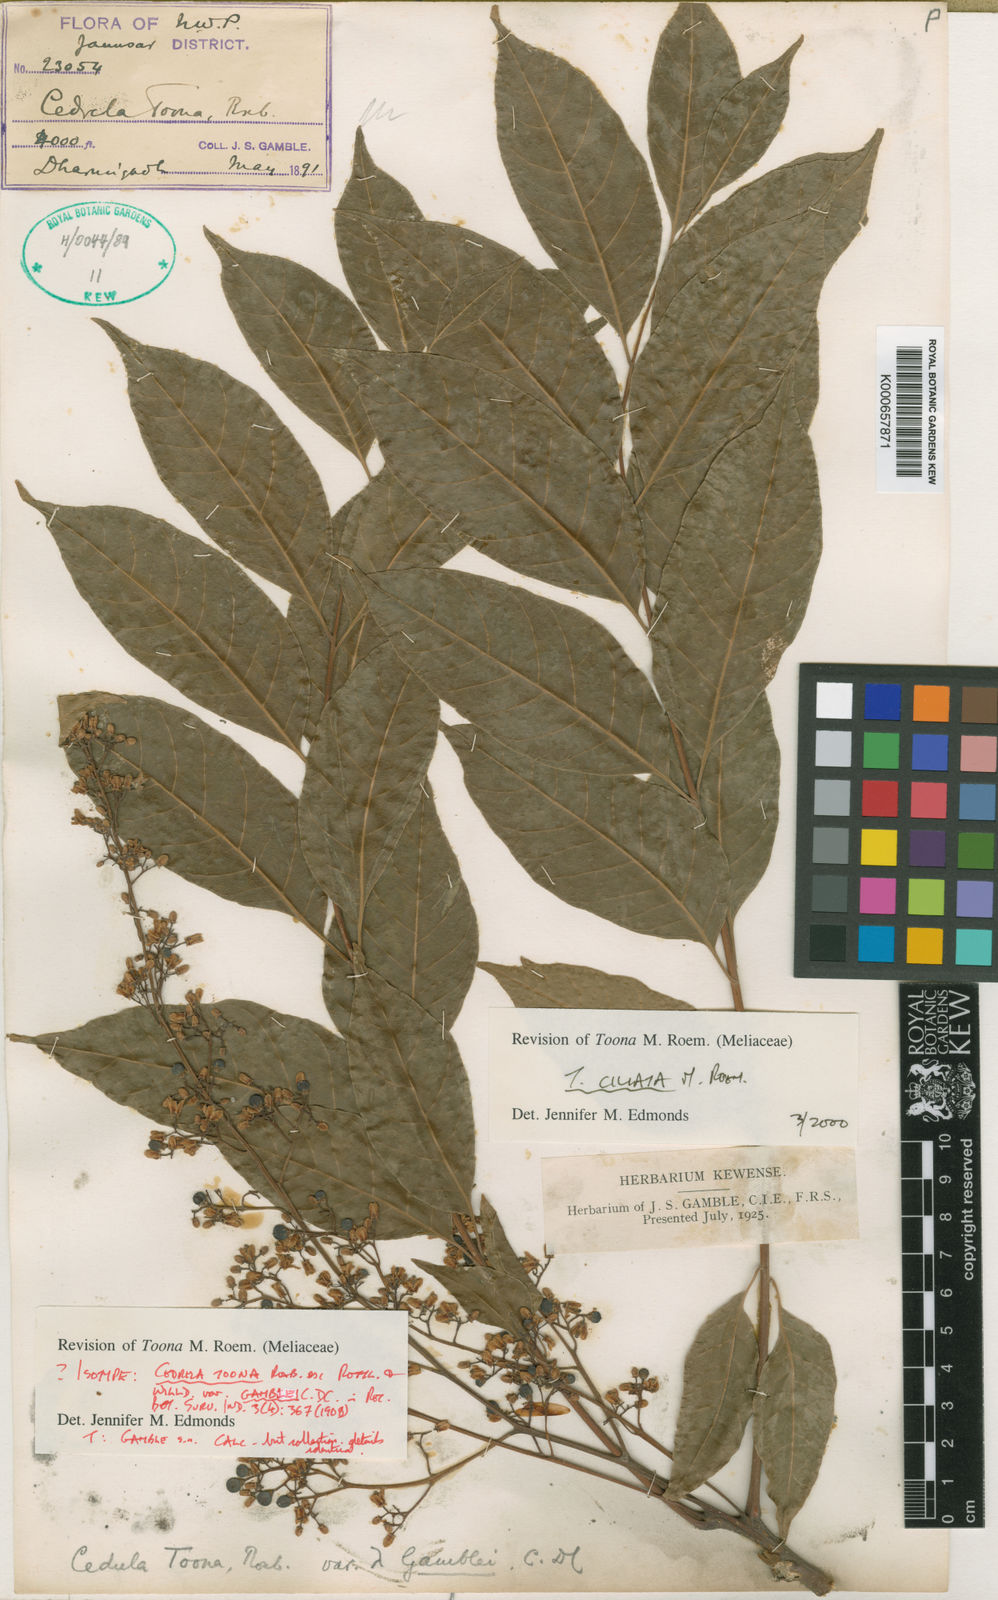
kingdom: Plantae
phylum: Tracheophyta
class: Magnoliopsida
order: Sapindales
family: Meliaceae
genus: Toona
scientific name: Toona ciliata
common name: Australian redcedar
